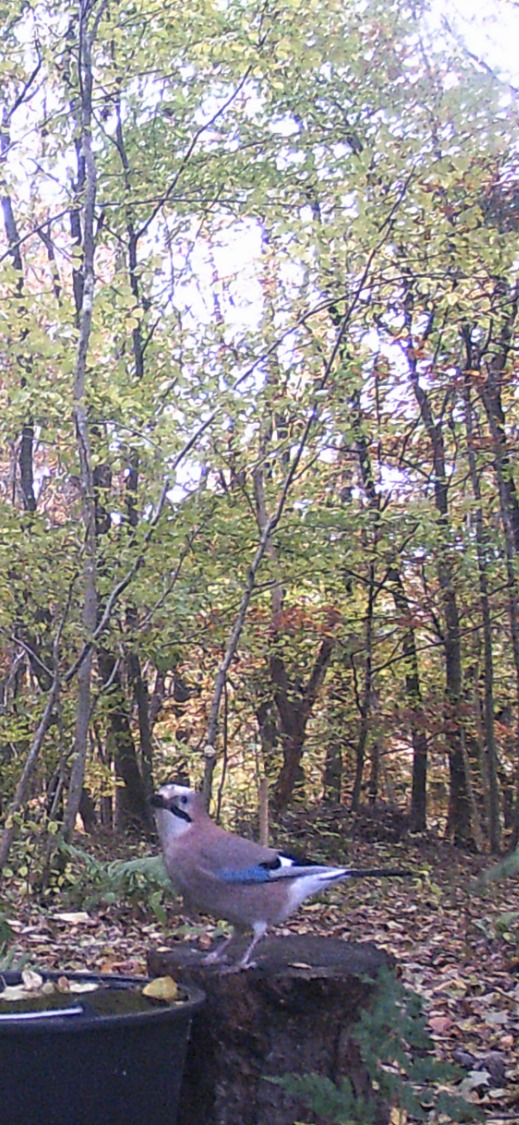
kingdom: Animalia
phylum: Chordata
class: Aves
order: Passeriformes
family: Corvidae
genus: Garrulus
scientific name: Garrulus glandarius
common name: Skovskade
